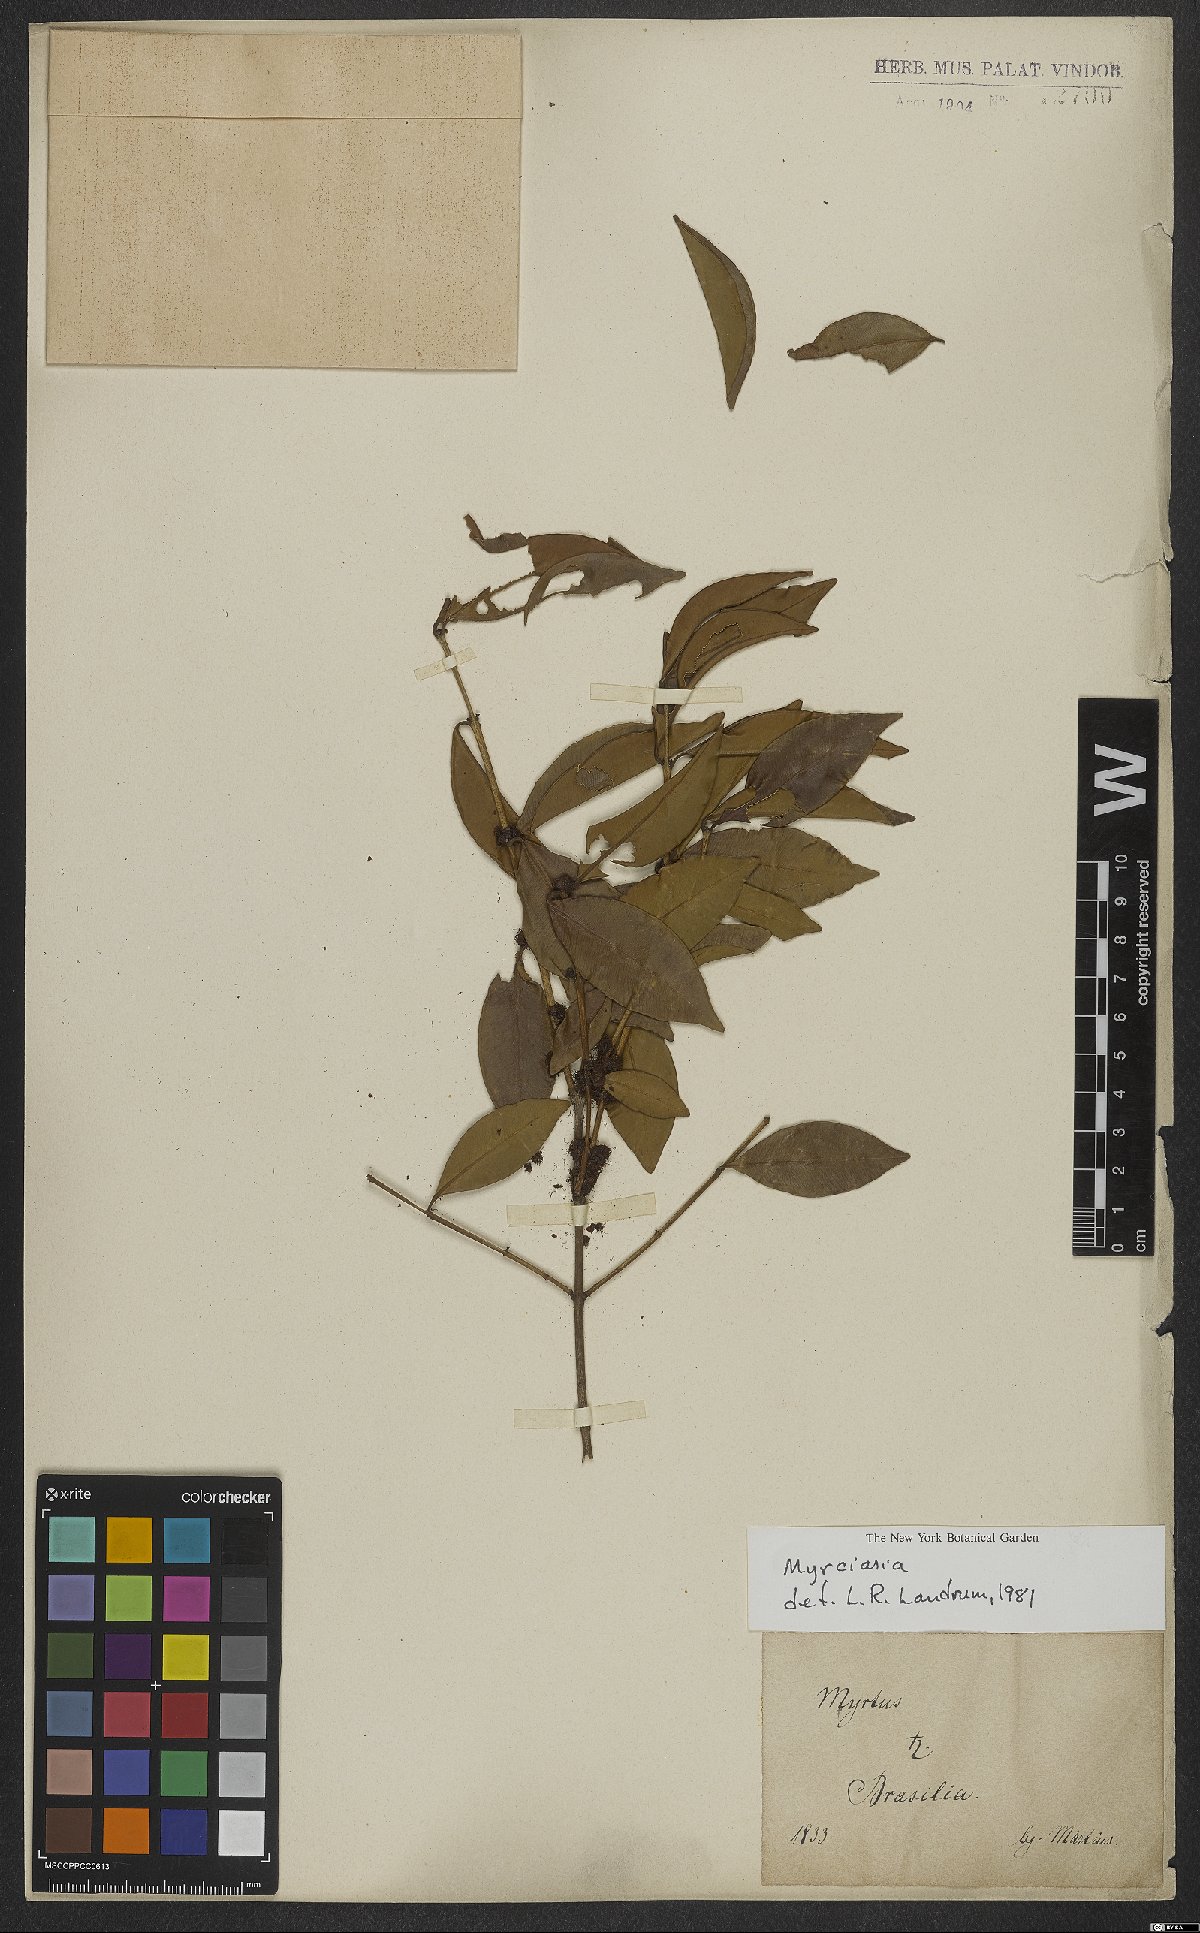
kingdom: Plantae
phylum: Tracheophyta
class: Magnoliopsida
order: Myrtales
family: Myrtaceae
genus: Myrciaria
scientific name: Myrciaria
